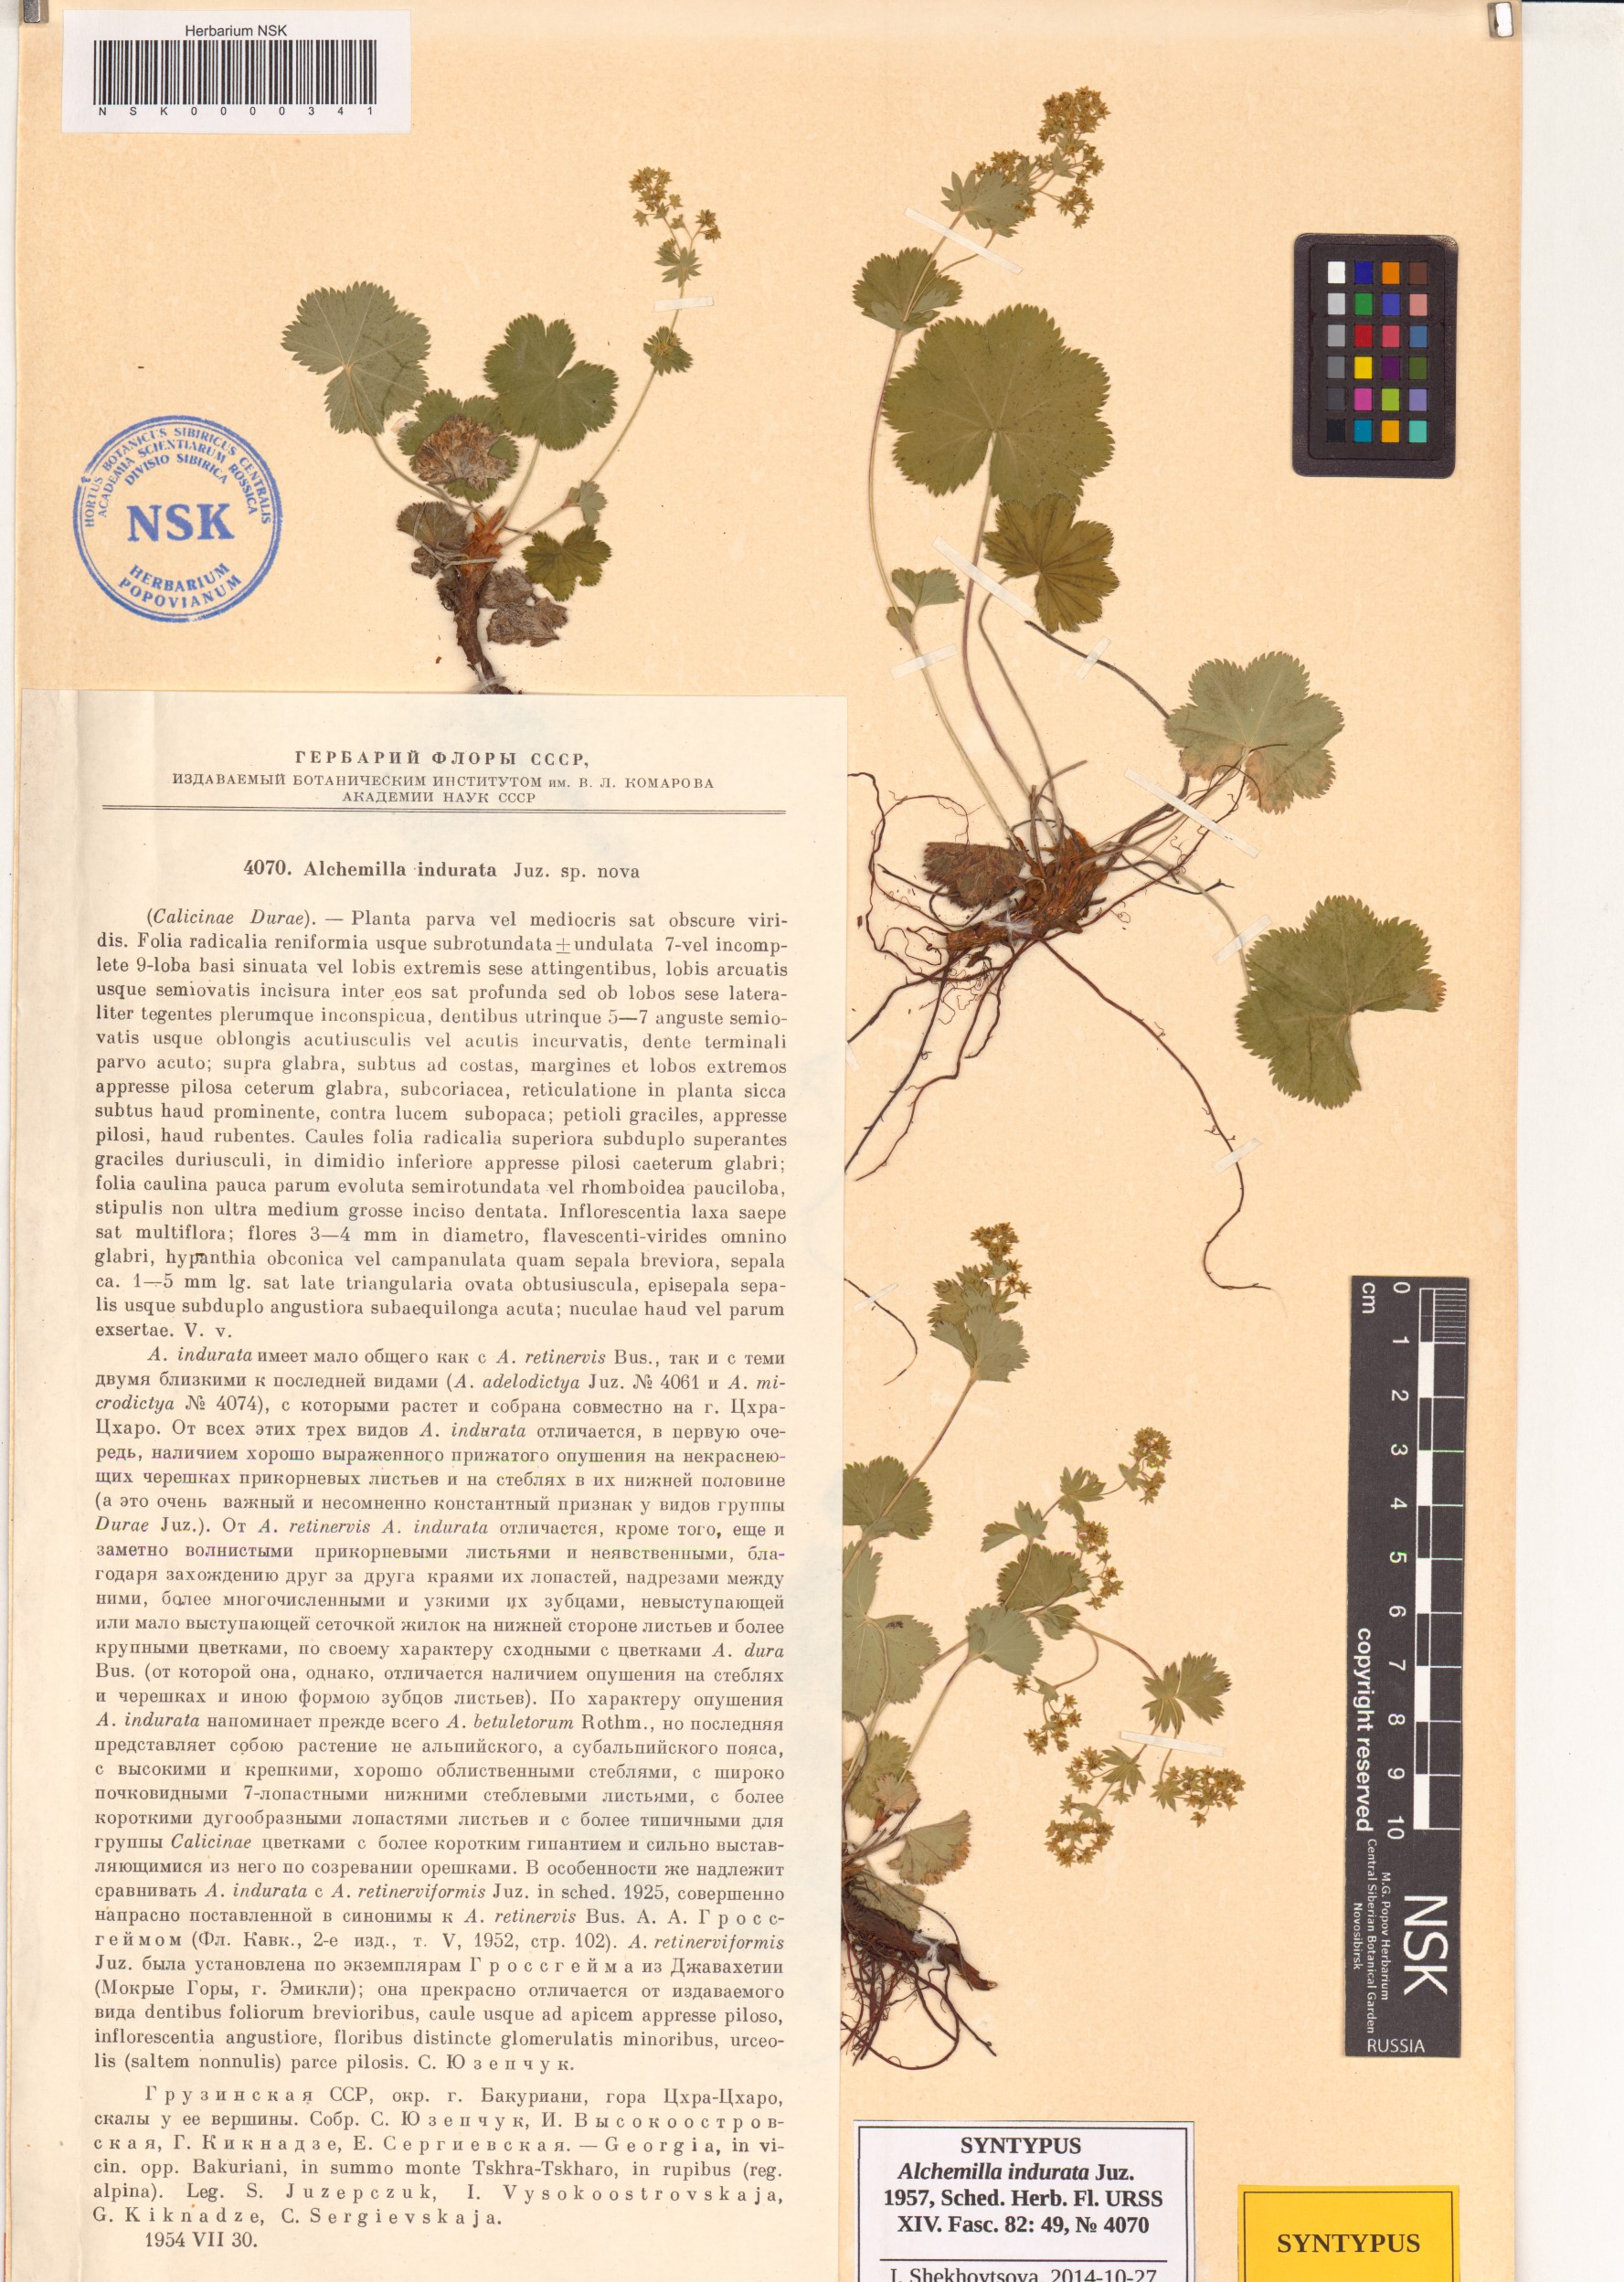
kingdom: Plantae
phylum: Tracheophyta
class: Magnoliopsida
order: Rosales
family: Rosaceae
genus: Alchemilla
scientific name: Alchemilla indurata
